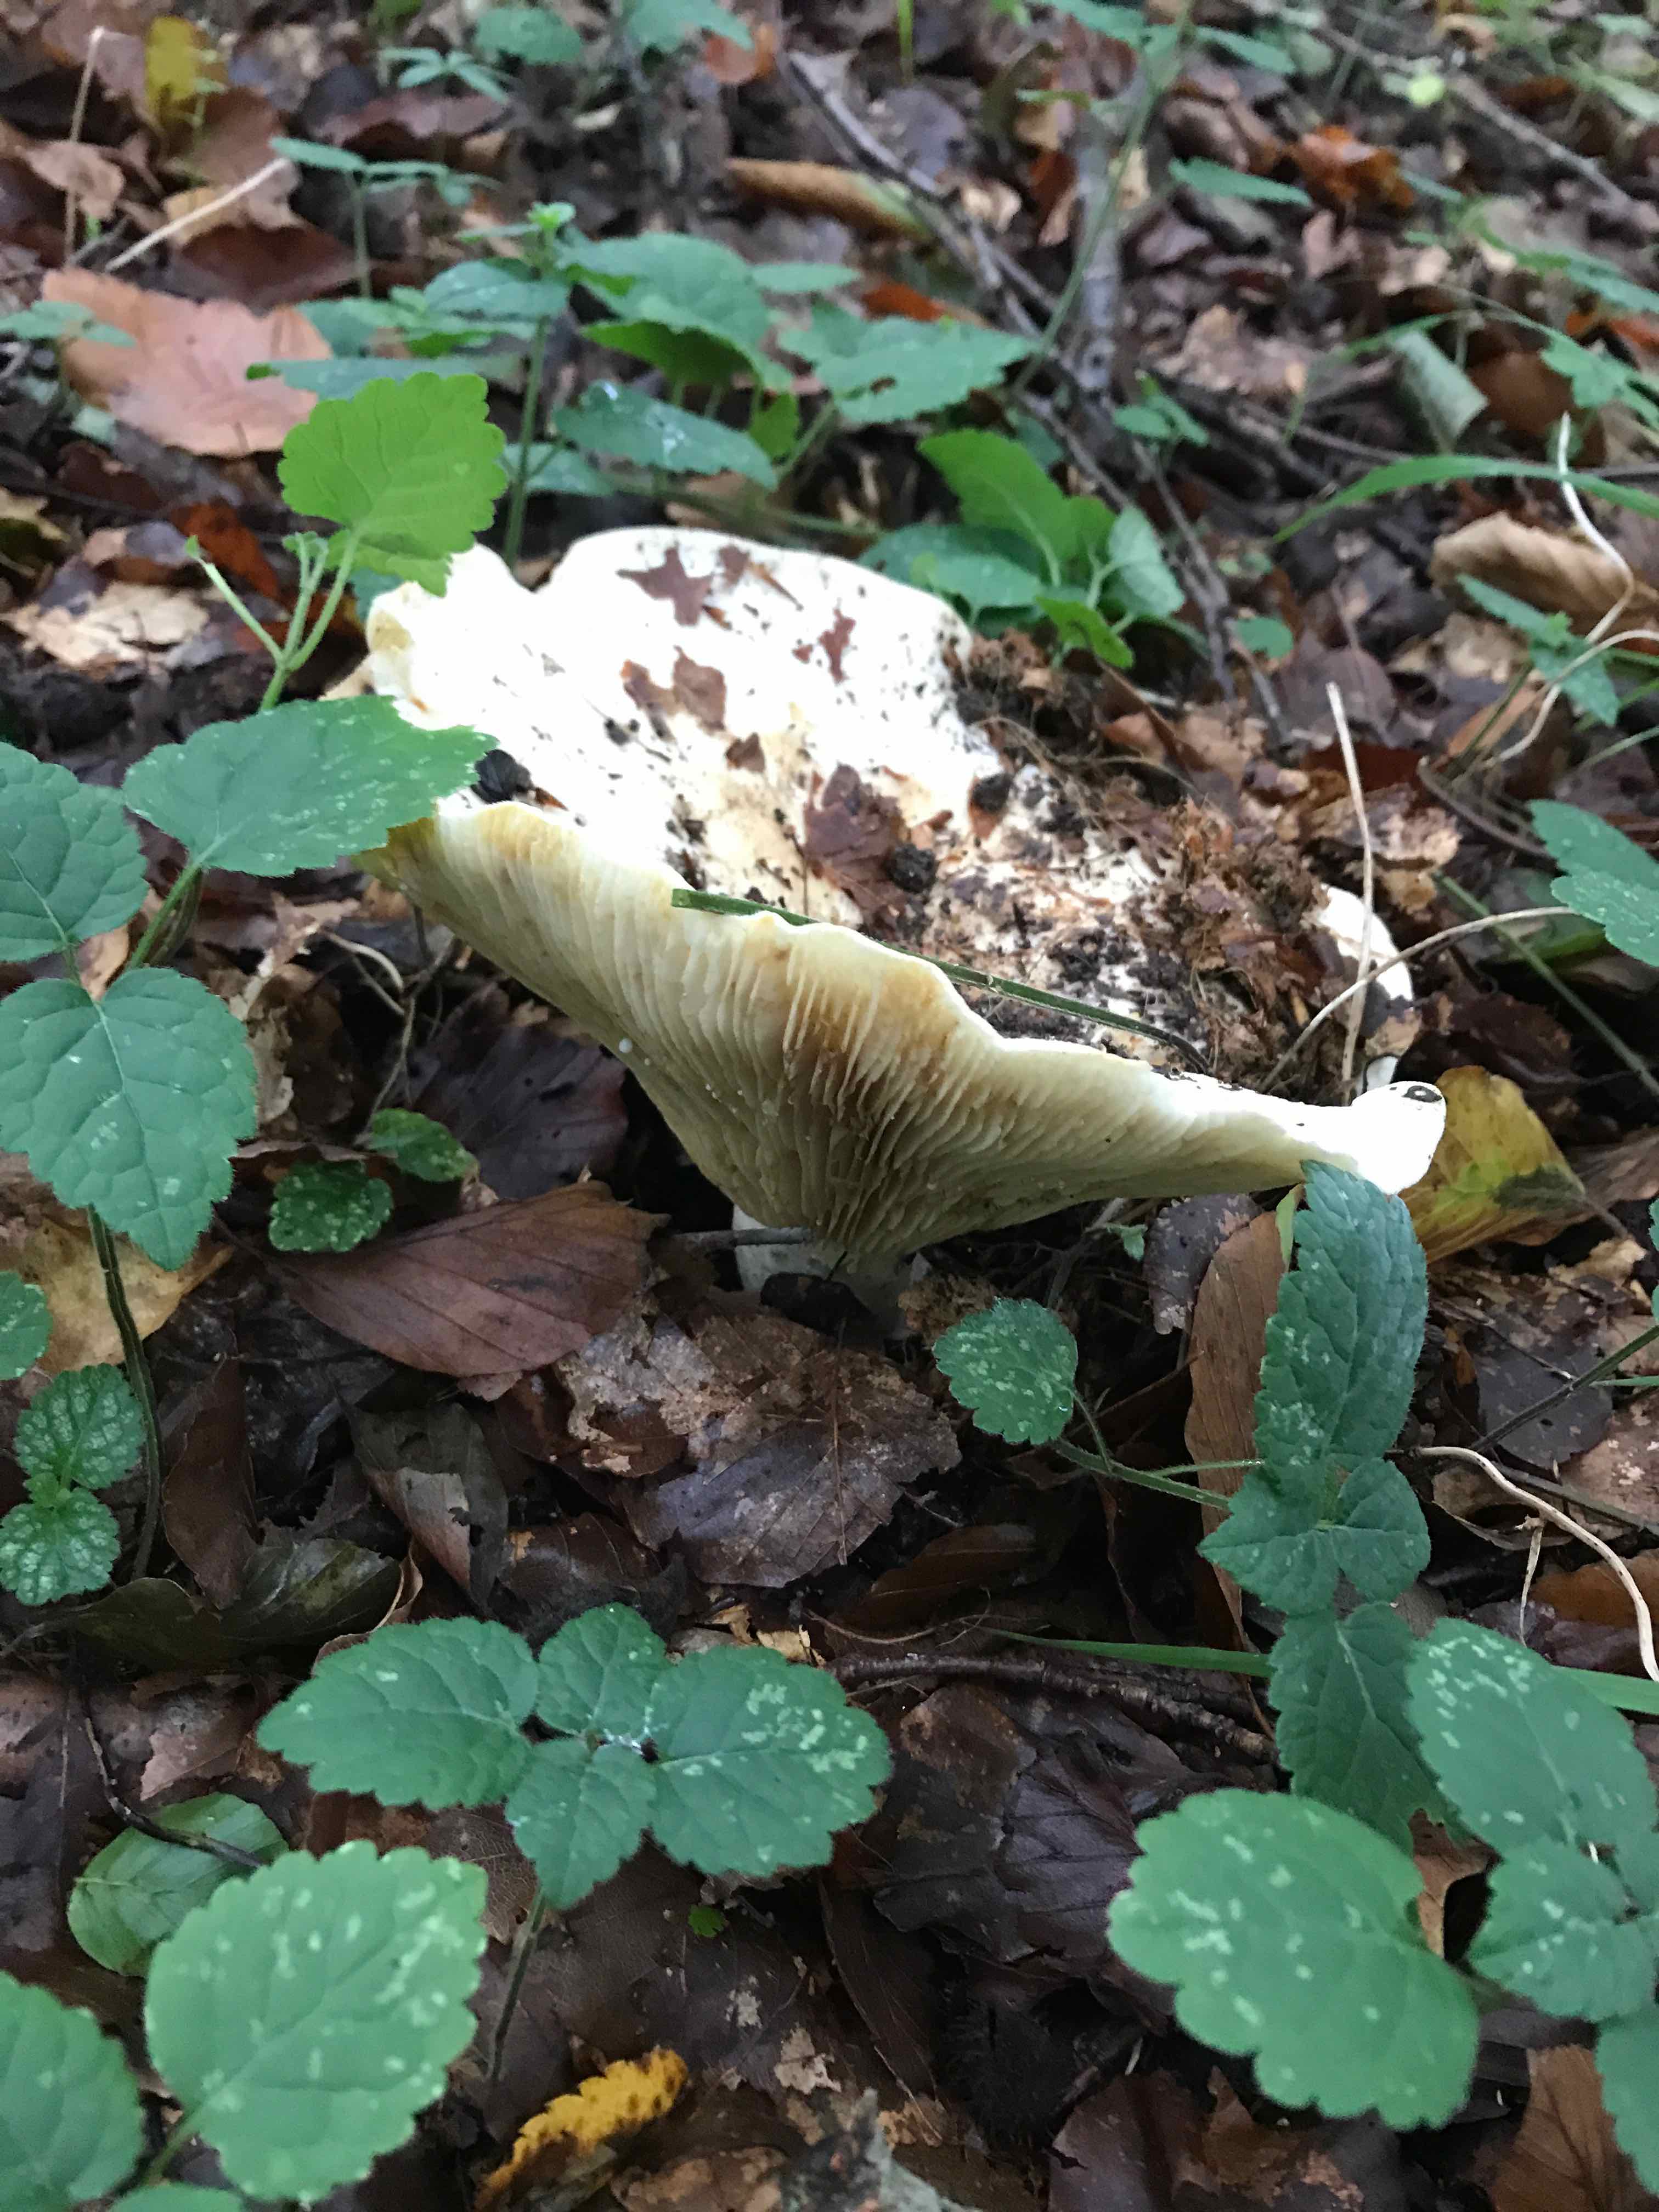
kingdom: Fungi
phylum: Basidiomycota
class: Agaricomycetes
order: Russulales
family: Russulaceae
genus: Lactifluus
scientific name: Lactifluus vellereus
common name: hvidfiltet mælkehat
